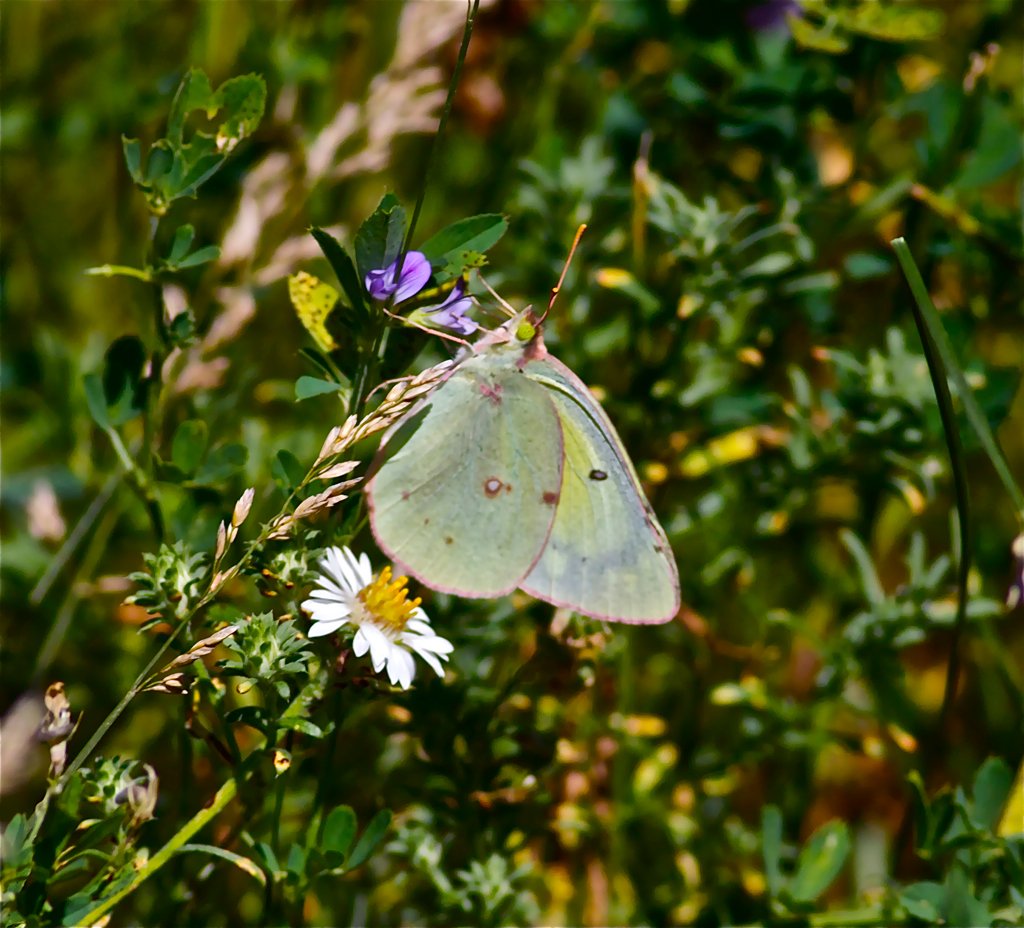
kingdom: Animalia
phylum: Arthropoda
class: Insecta
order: Lepidoptera
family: Pieridae
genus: Colias
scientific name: Colias philodice
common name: Clouded Sulphur
